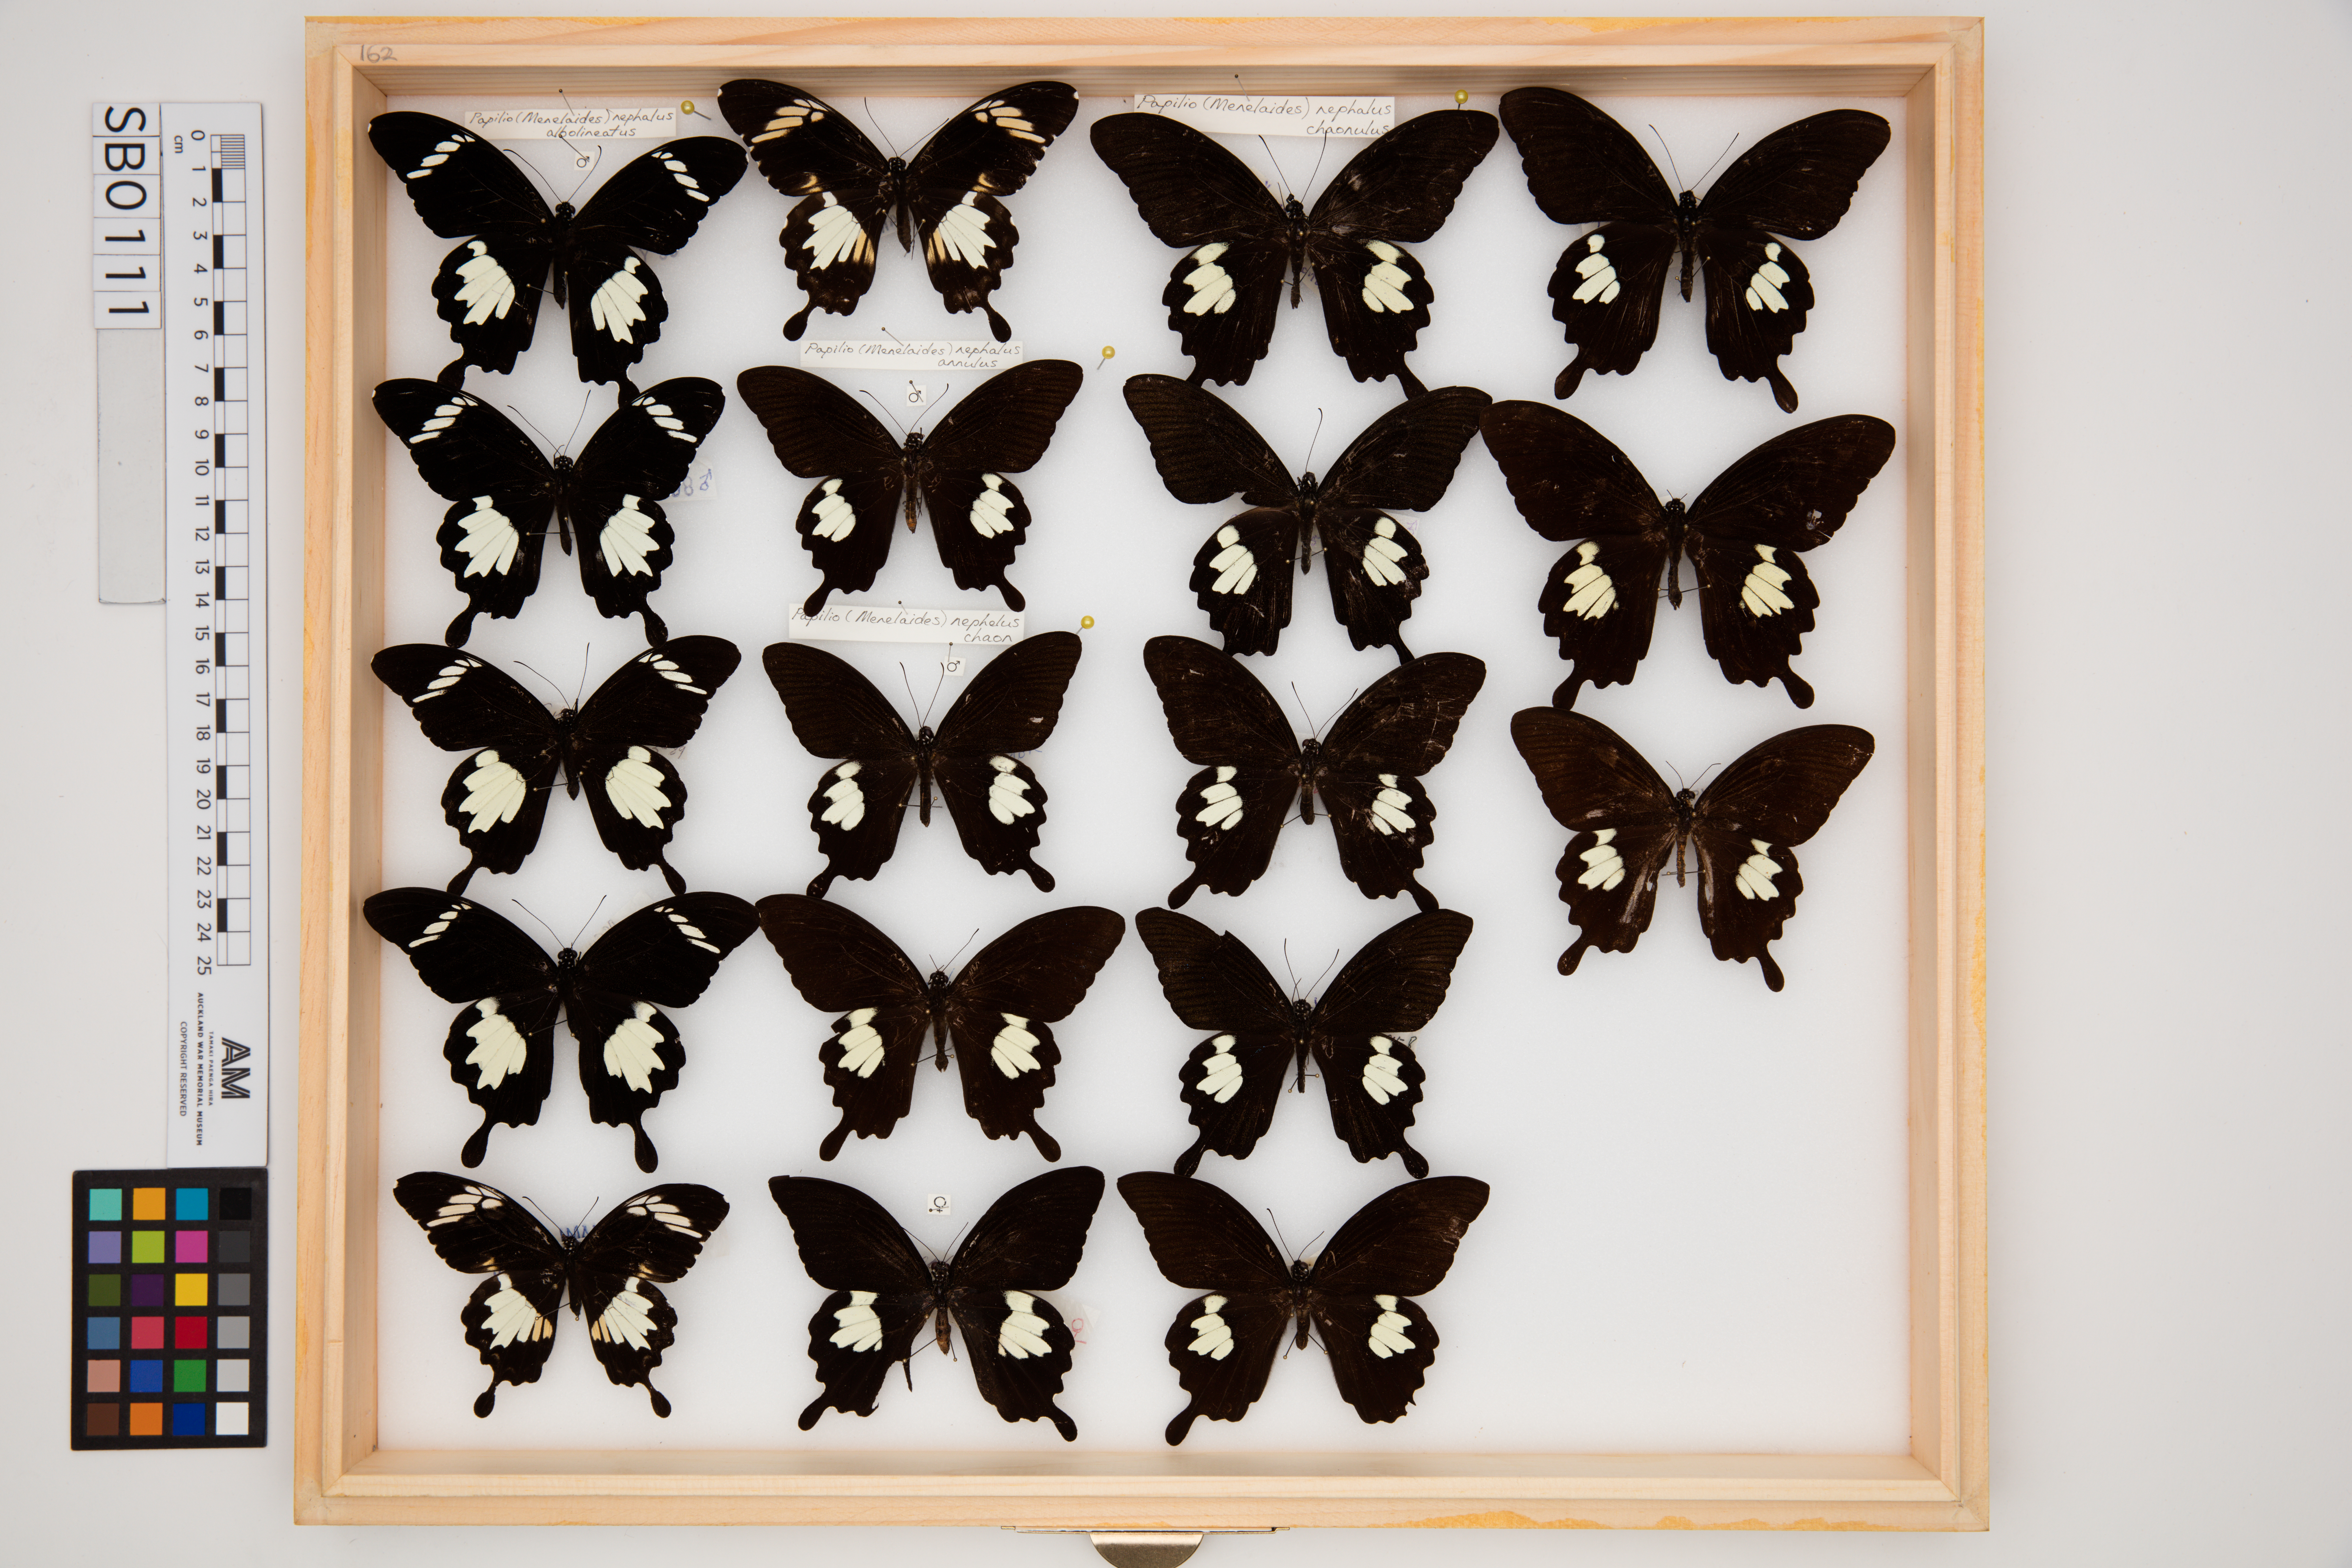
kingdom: Animalia
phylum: Arthropoda
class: Insecta
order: Lepidoptera
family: Papilionidae
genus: Papilio
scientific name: Papilio nephelus
